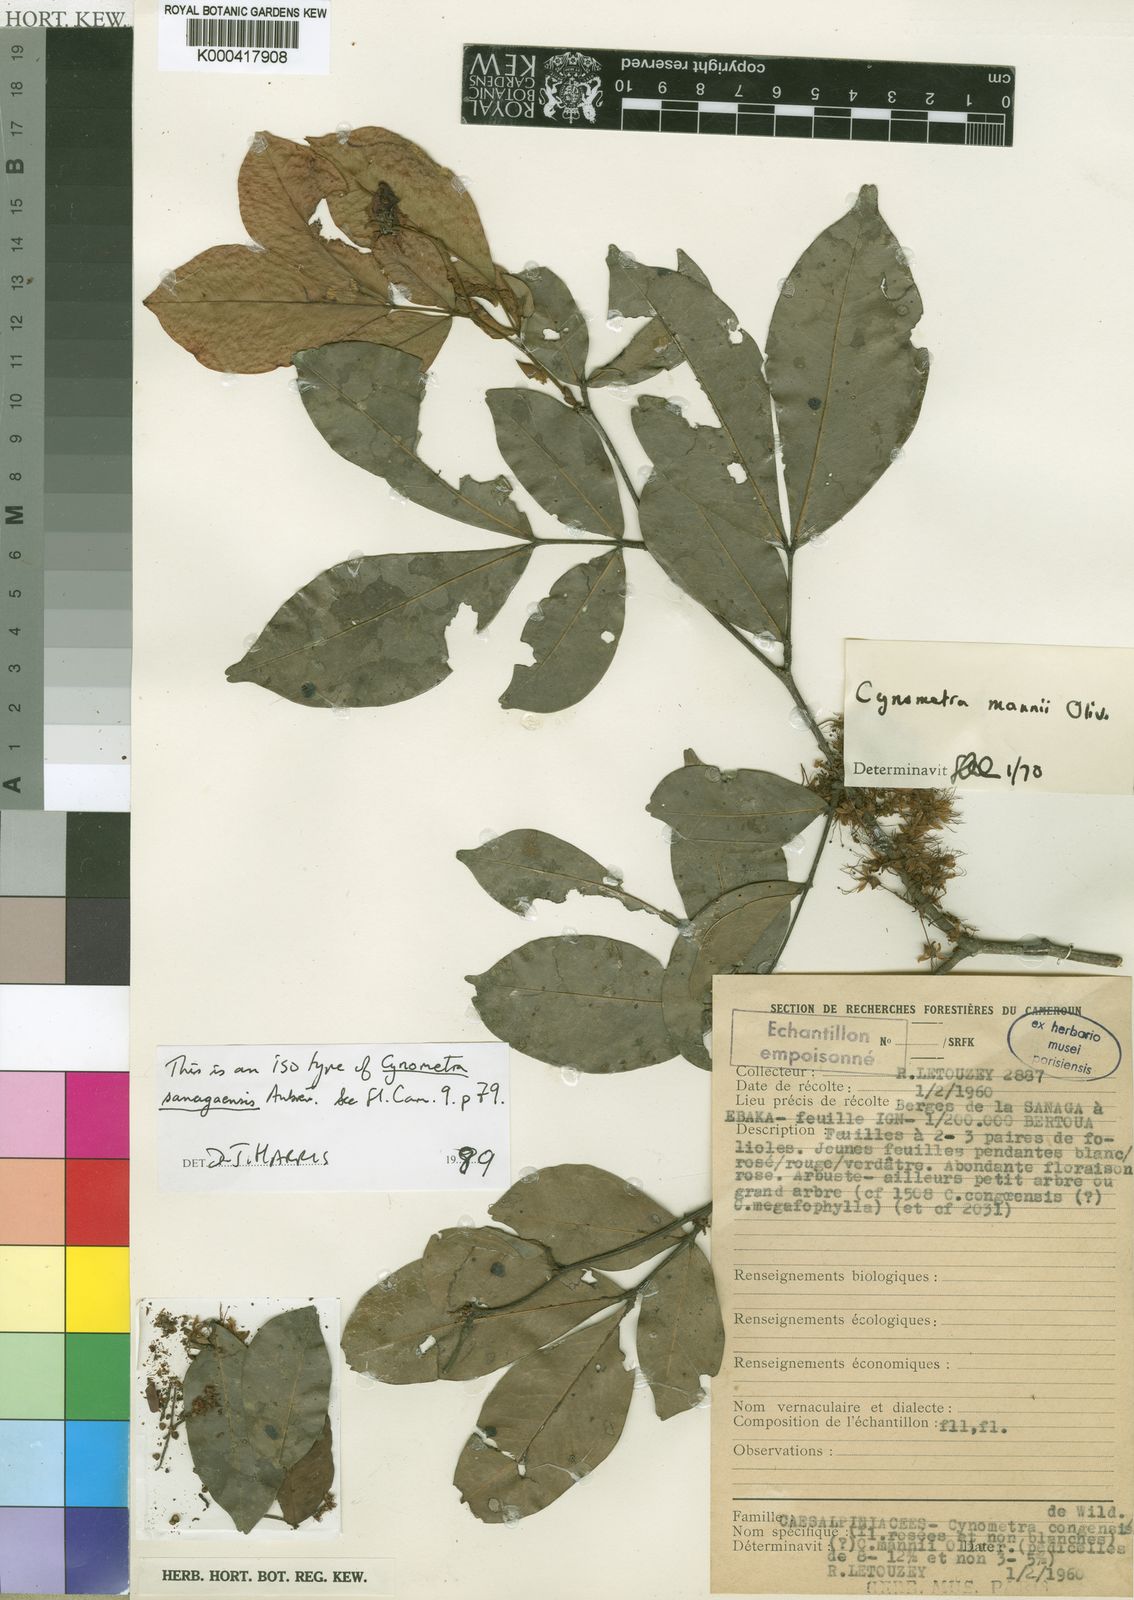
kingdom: Plantae
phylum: Tracheophyta
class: Magnoliopsida
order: Fabales
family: Fabaceae
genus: Cynometra
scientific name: Cynometra mannii
